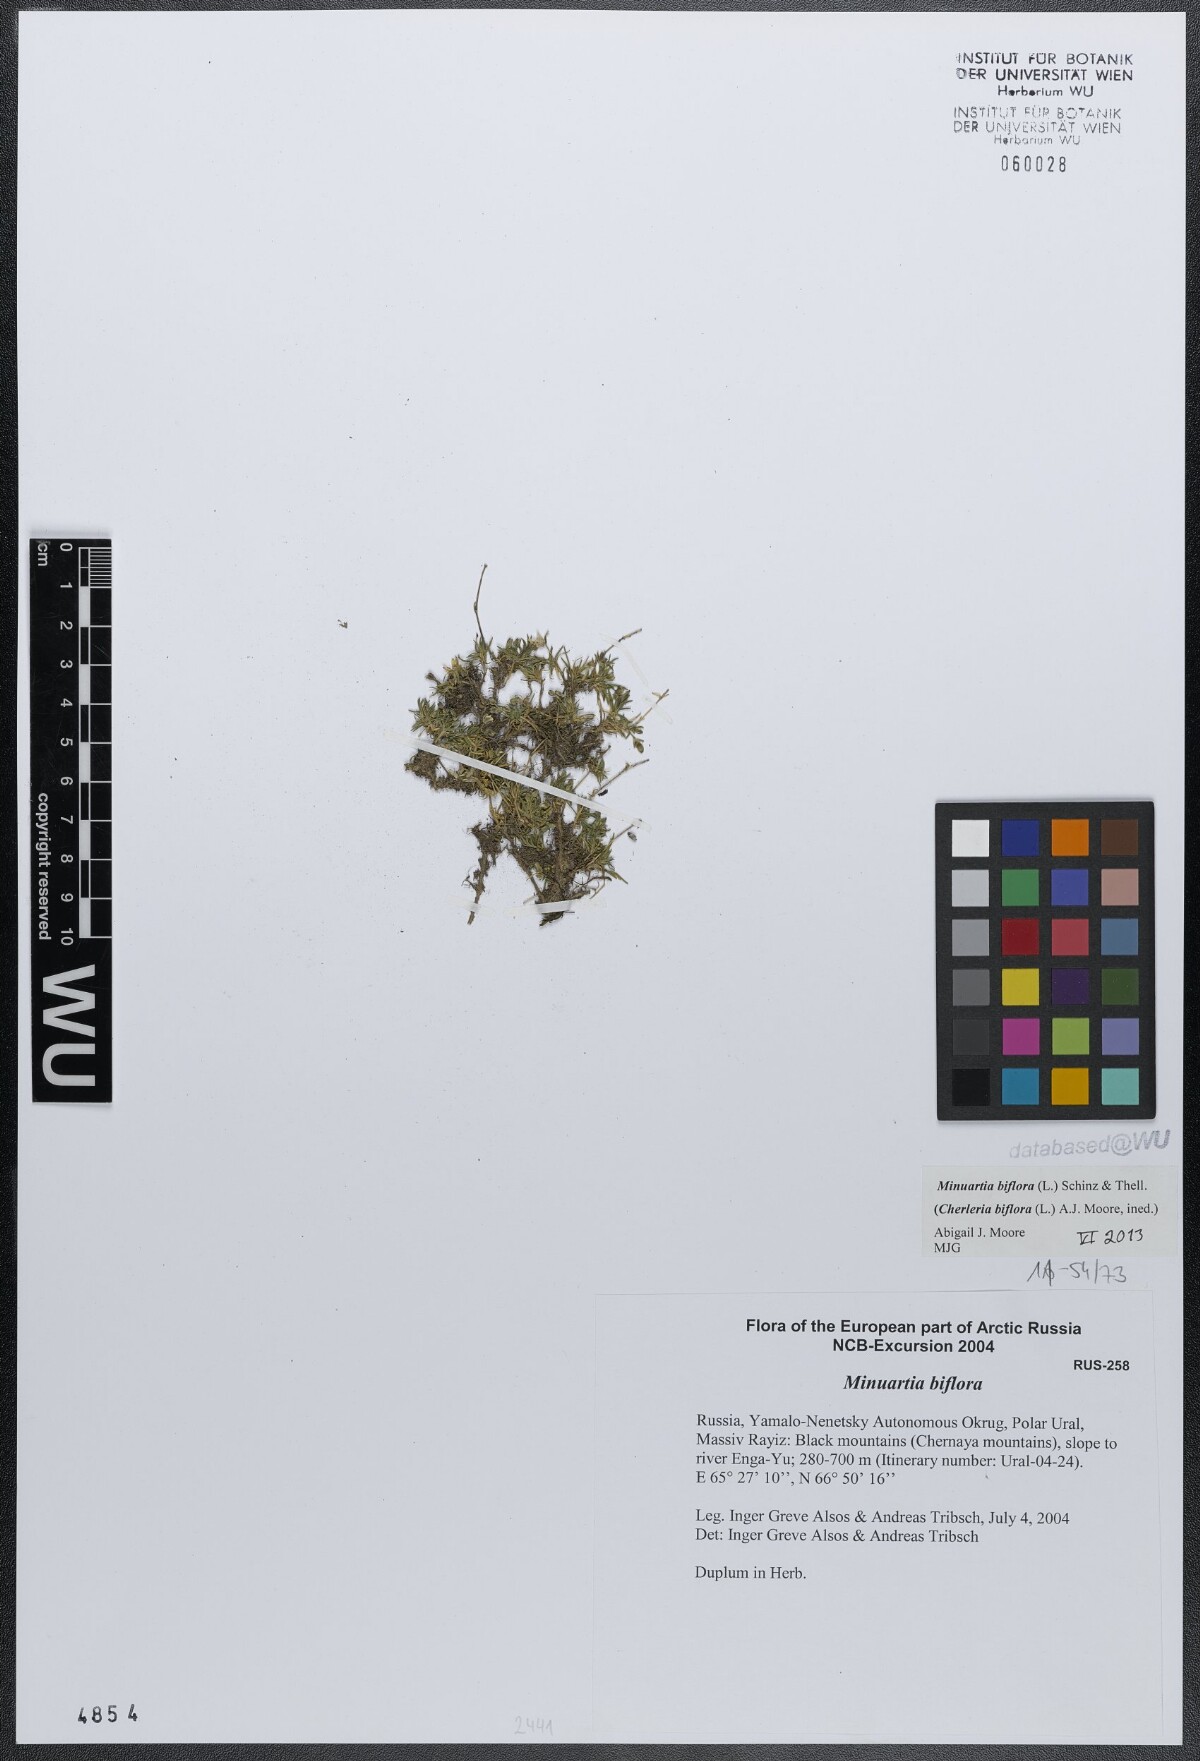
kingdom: Plantae
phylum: Tracheophyta
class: Magnoliopsida
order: Caryophyllales
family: Caryophyllaceae
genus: Cherleria
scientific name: Cherleria biflora
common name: Mountain sandwort
